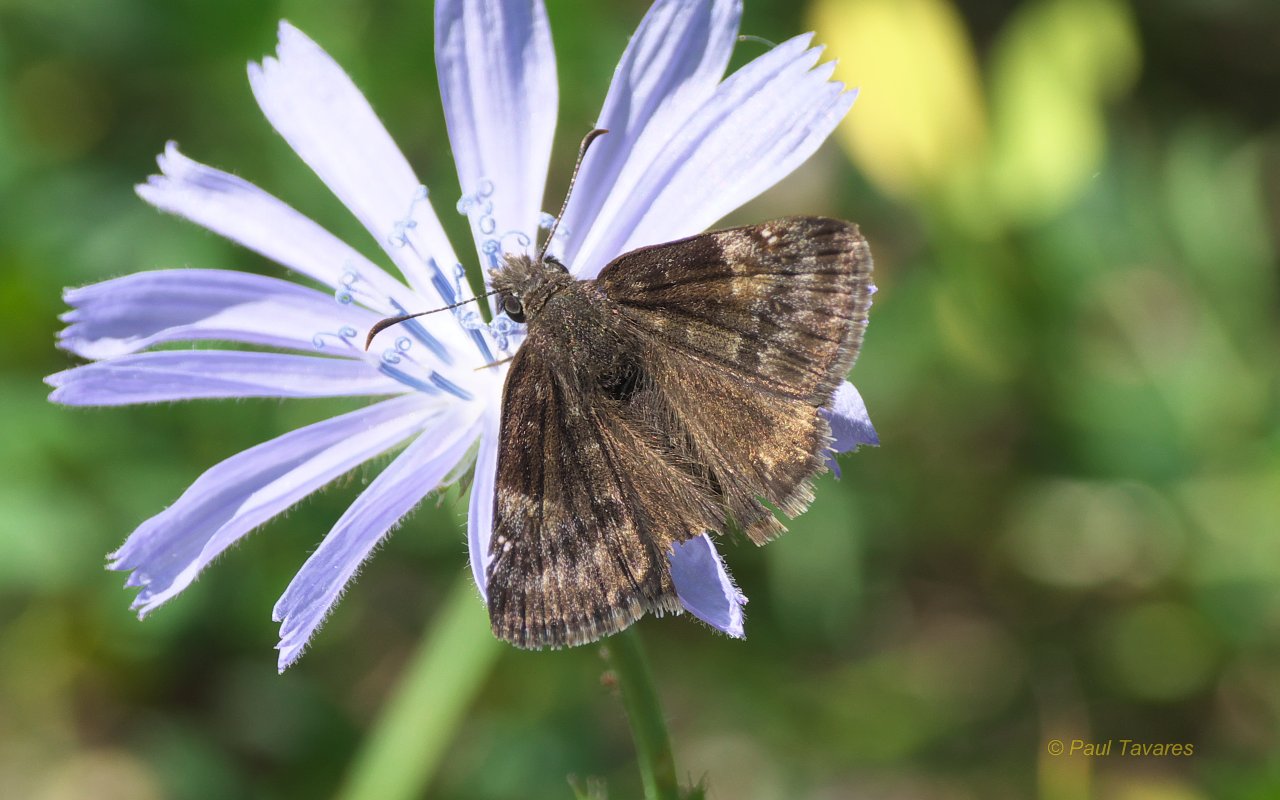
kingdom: Animalia
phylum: Arthropoda
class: Insecta
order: Lepidoptera
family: Hesperiidae
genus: Gesta
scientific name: Gesta
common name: Wild Indigo Duskywing
